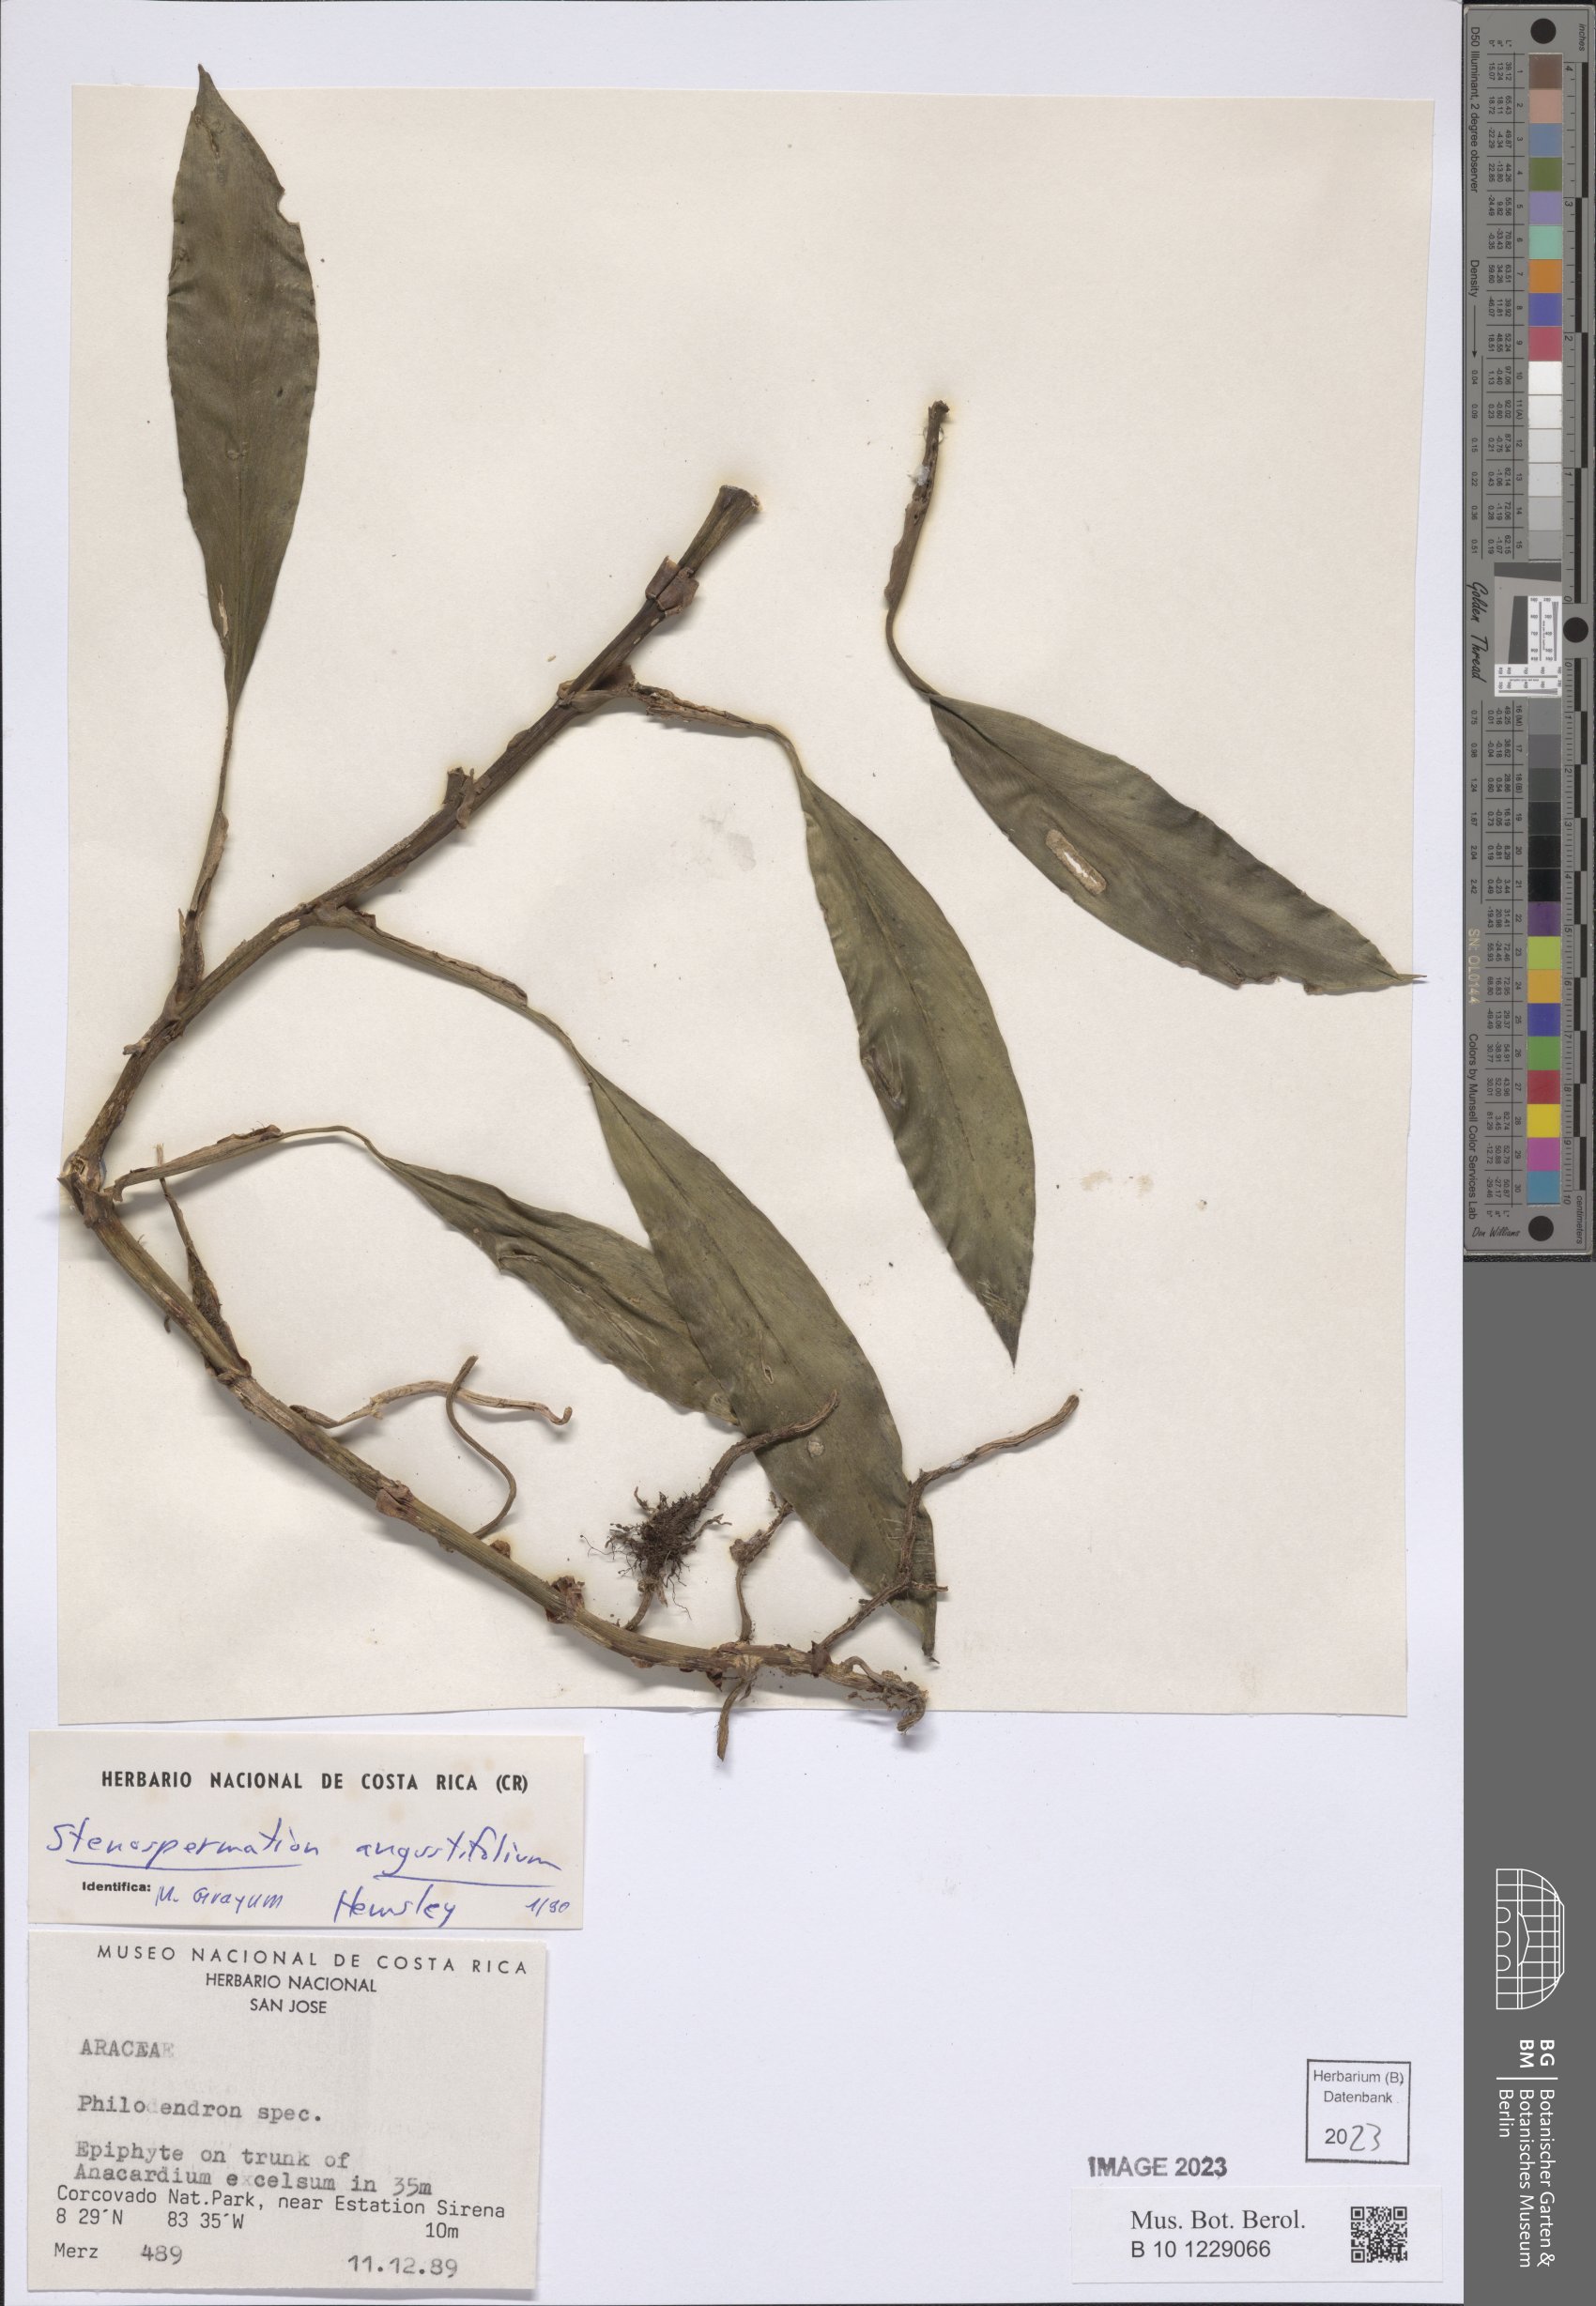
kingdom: Plantae
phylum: Tracheophyta
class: Liliopsida
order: Alismatales
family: Araceae
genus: Stenospermation
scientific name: Stenospermation angustifolium
